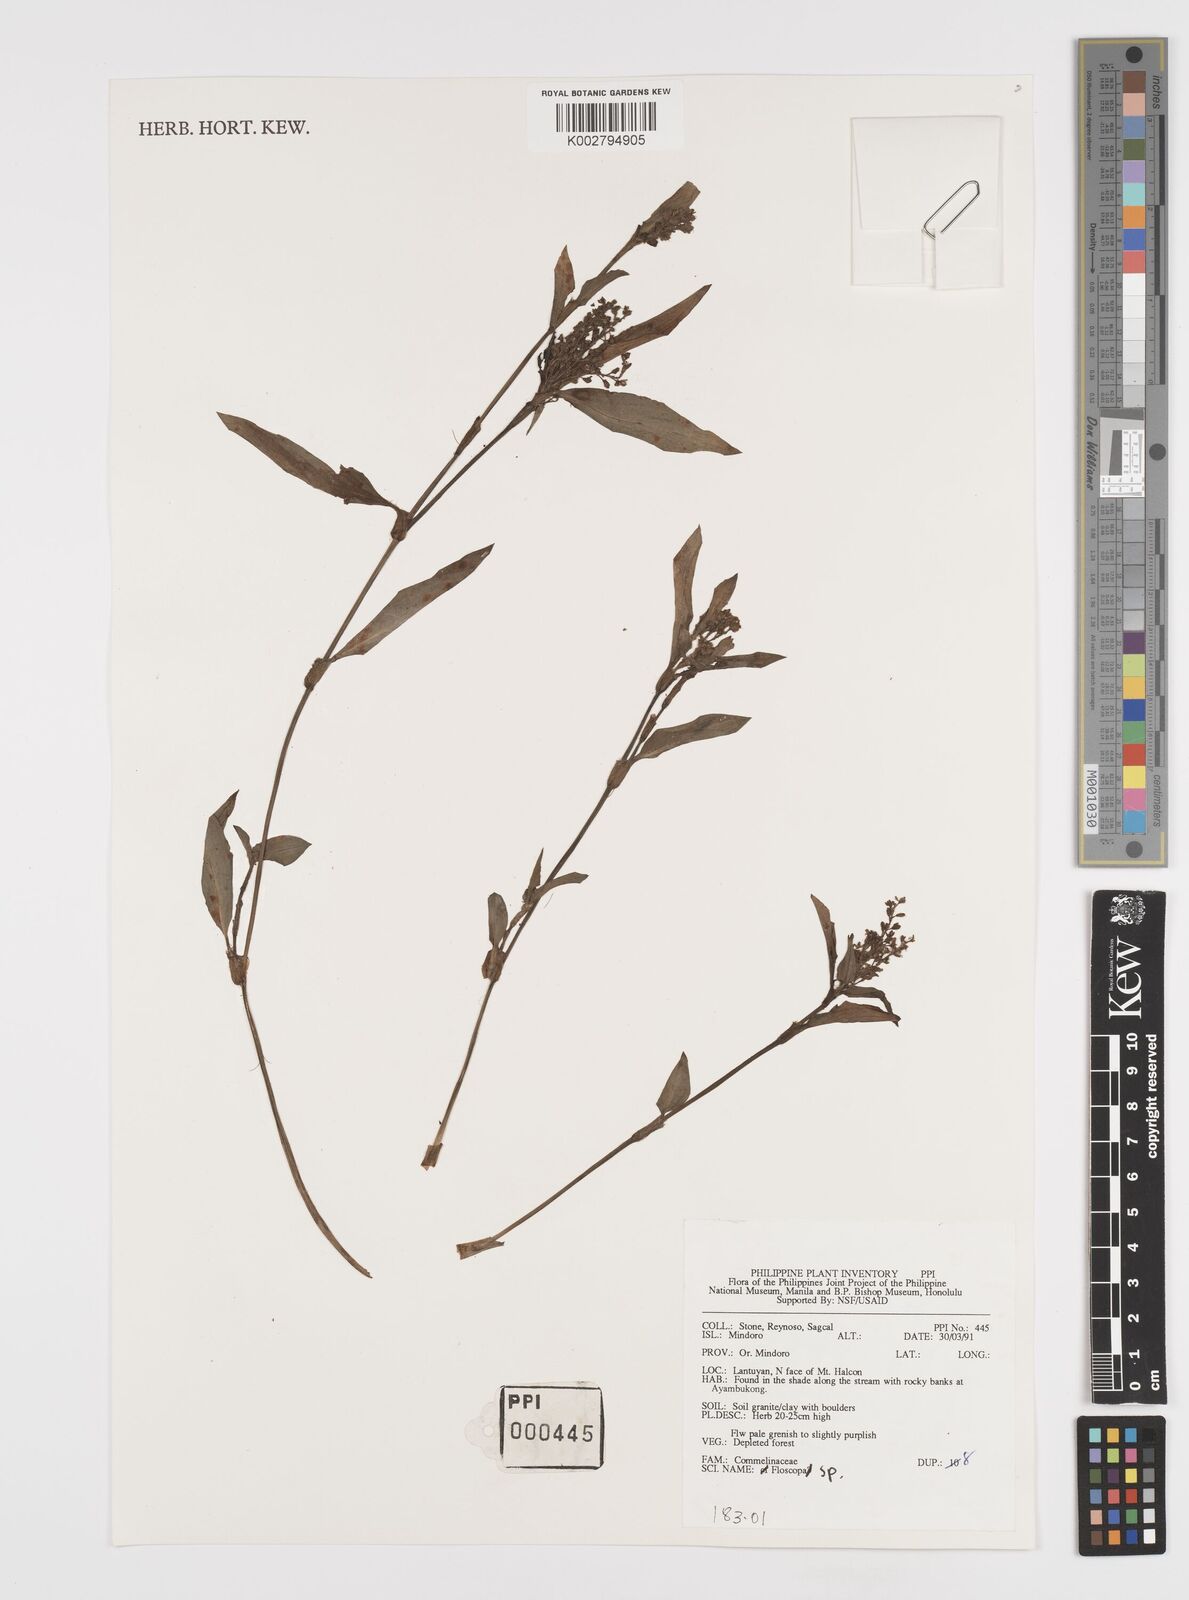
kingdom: Plantae
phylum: Tracheophyta
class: Liliopsida
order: Commelinales
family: Commelinaceae
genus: Floscopa
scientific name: Floscopa scandens
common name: Climbing flower cup
